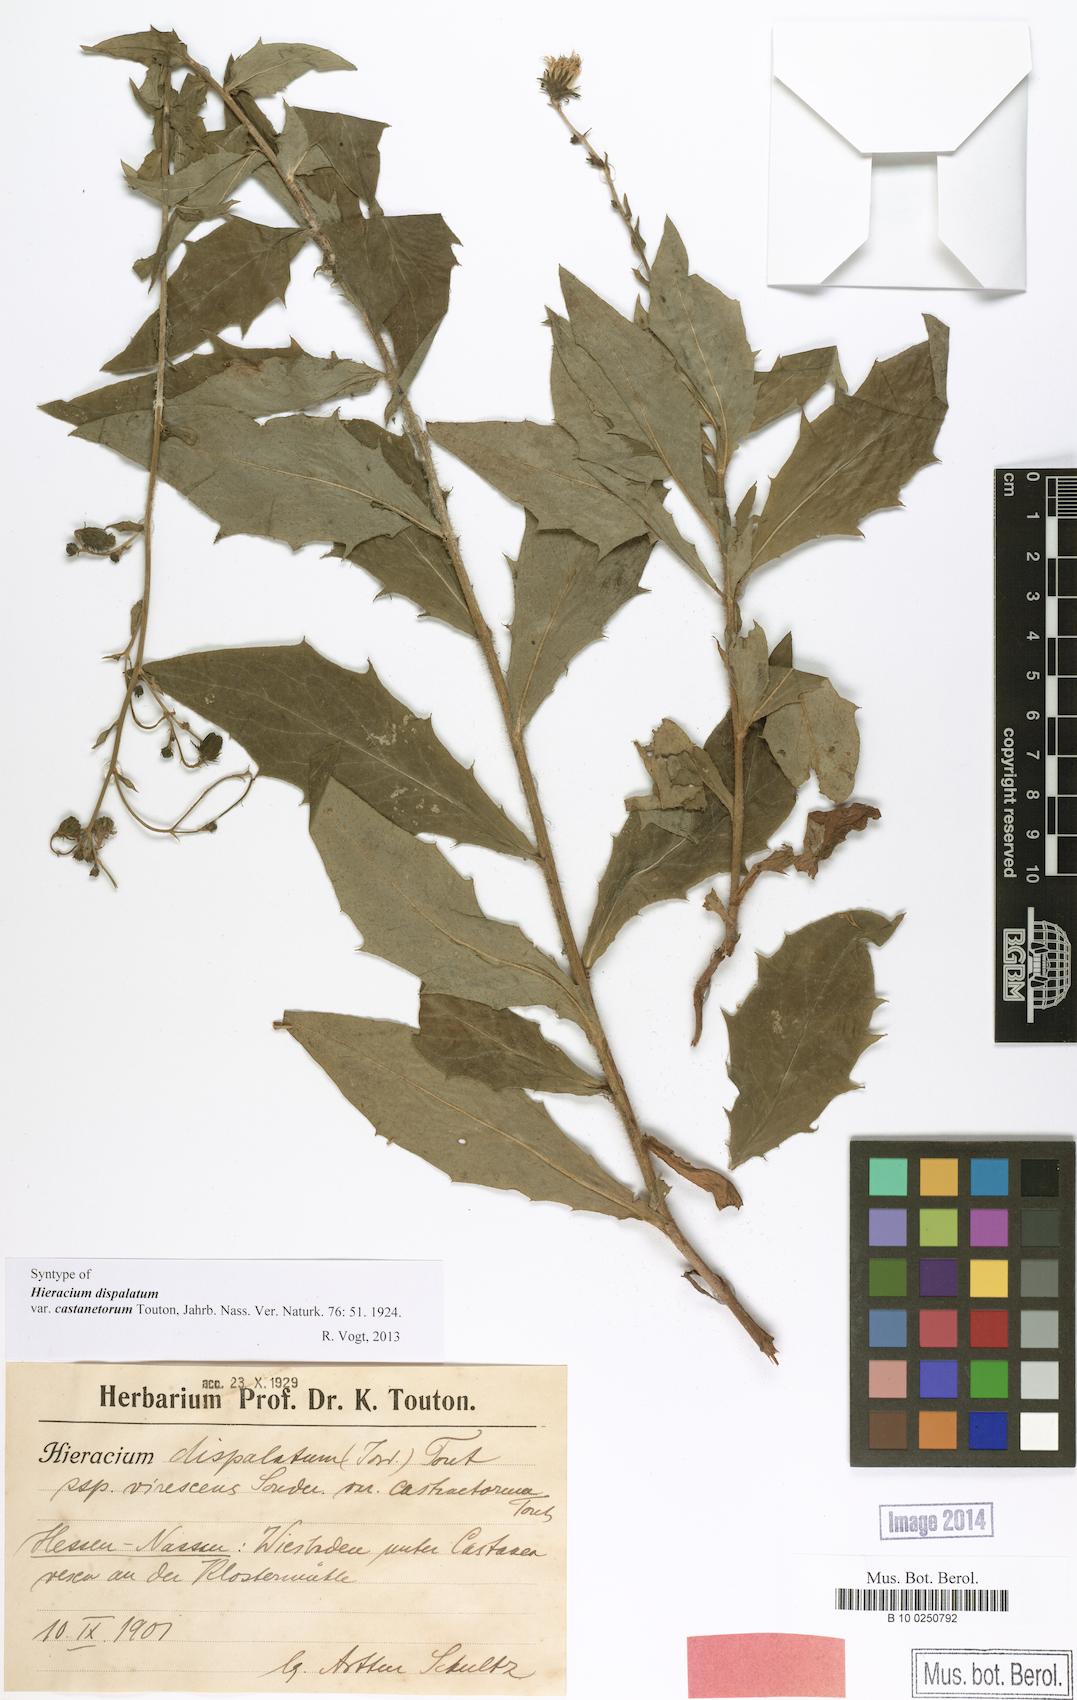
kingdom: Plantae
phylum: Tracheophyta
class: Magnoliopsida
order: Asterales
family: Asteraceae
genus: Hieracium
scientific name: Hieracium sabaudum
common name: New england hawkweed
